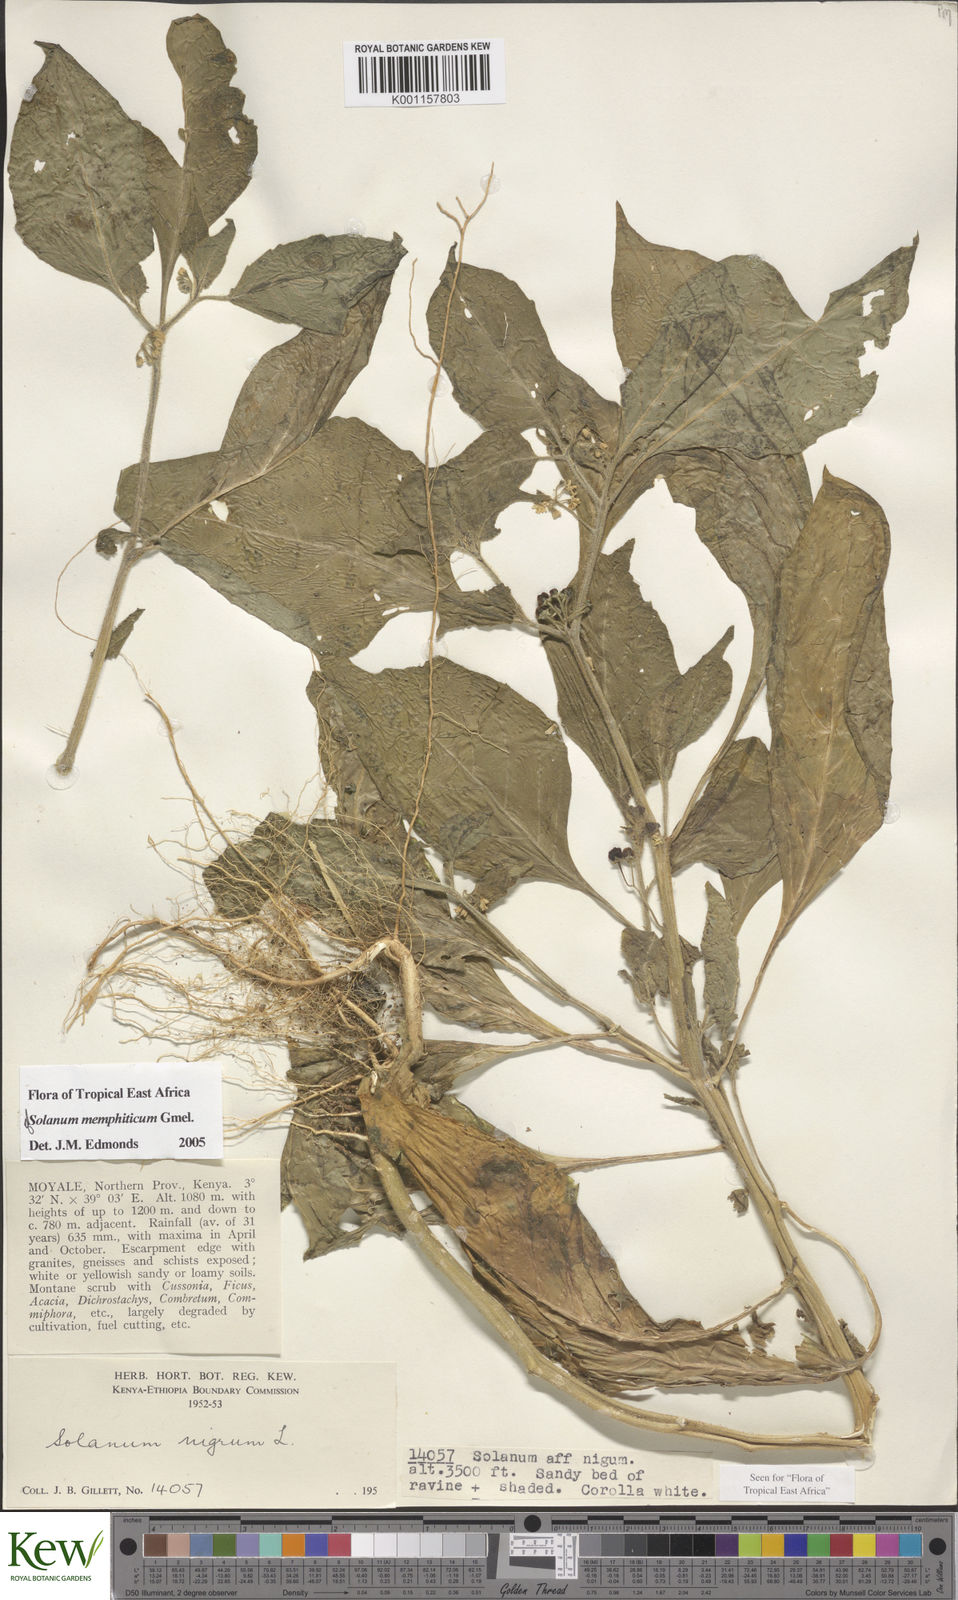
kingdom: Plantae
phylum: Tracheophyta
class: Magnoliopsida
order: Solanales
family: Solanaceae
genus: Solanum
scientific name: Solanum memphiticum
